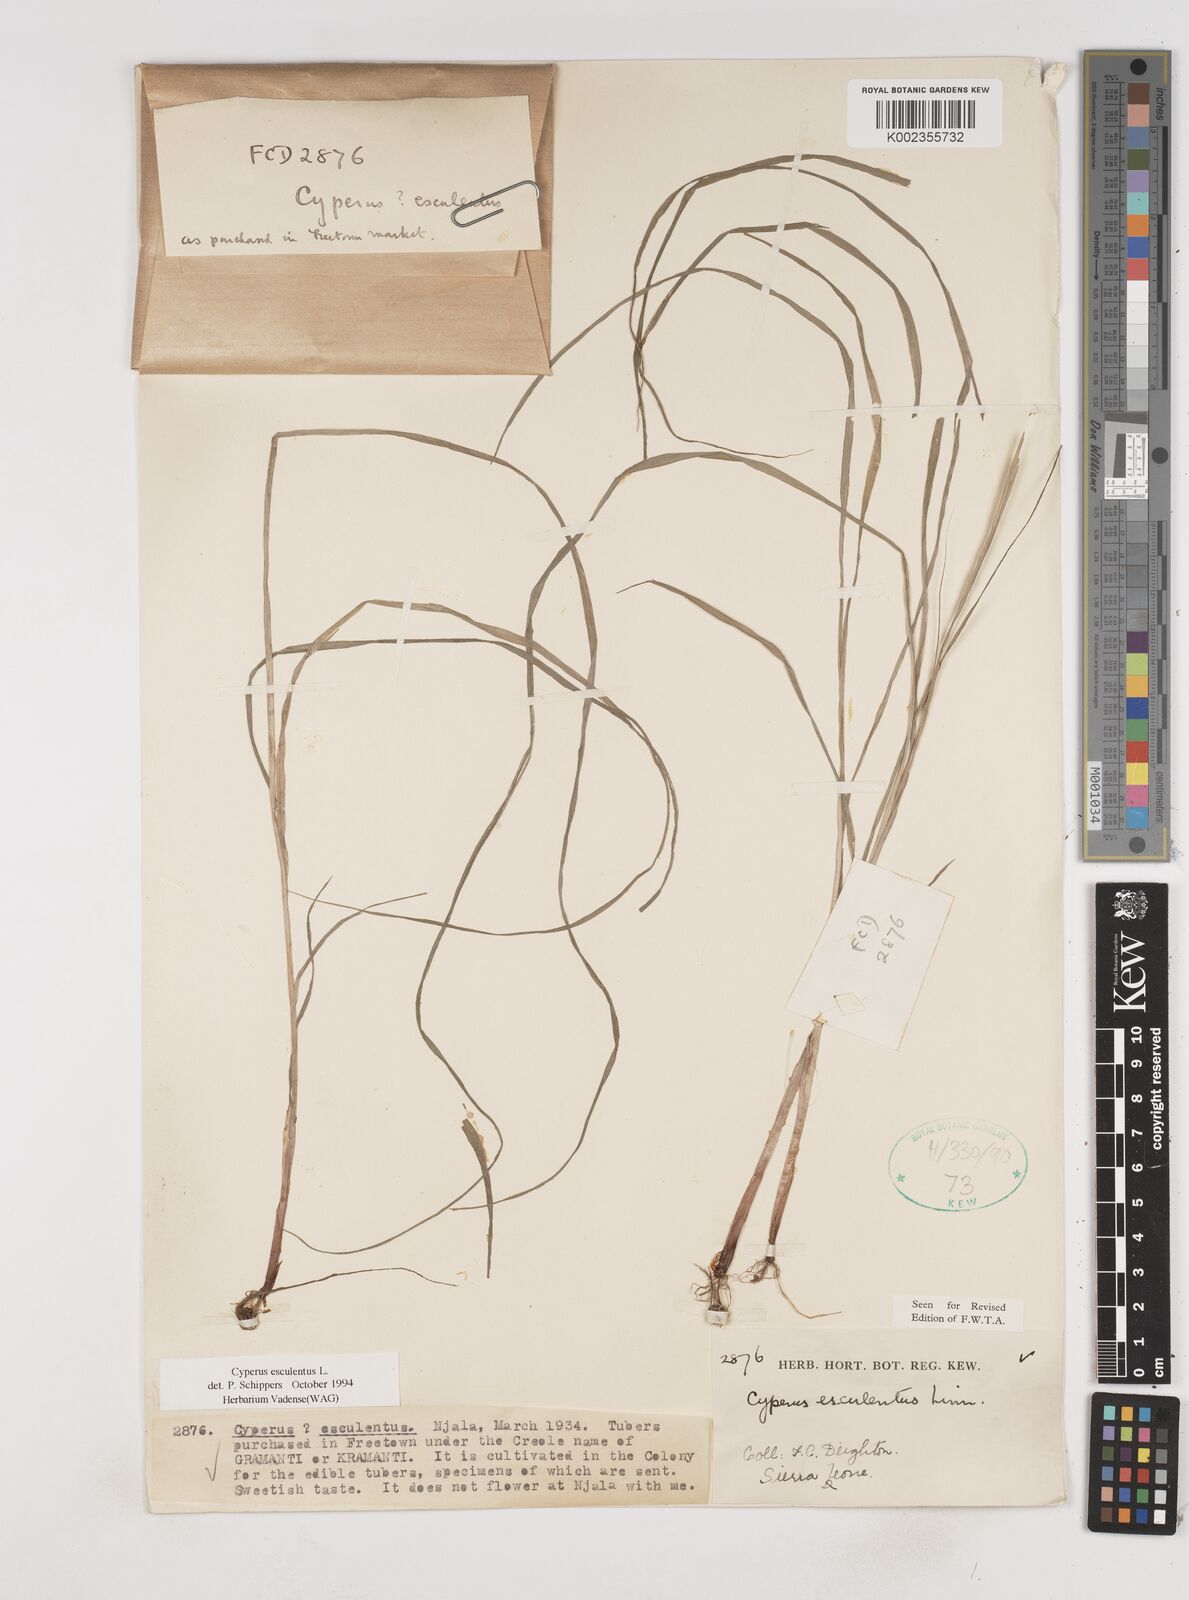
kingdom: Plantae
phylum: Tracheophyta
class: Liliopsida
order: Poales
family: Cyperaceae
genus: Cyperus
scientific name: Cyperus esculentus
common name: Yellow nutsedge
